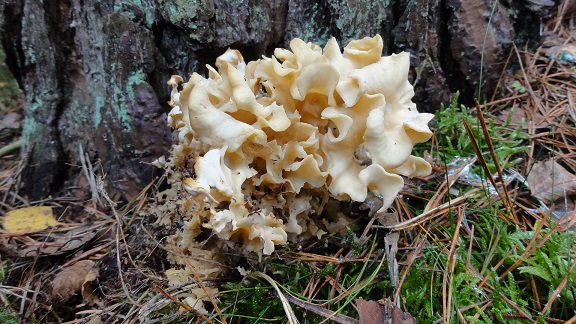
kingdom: Fungi
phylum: Basidiomycota
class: Agaricomycetes
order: Polyporales
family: Sparassidaceae
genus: Sparassis
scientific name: Sparassis crispa
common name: kruset blomkålssvamp
